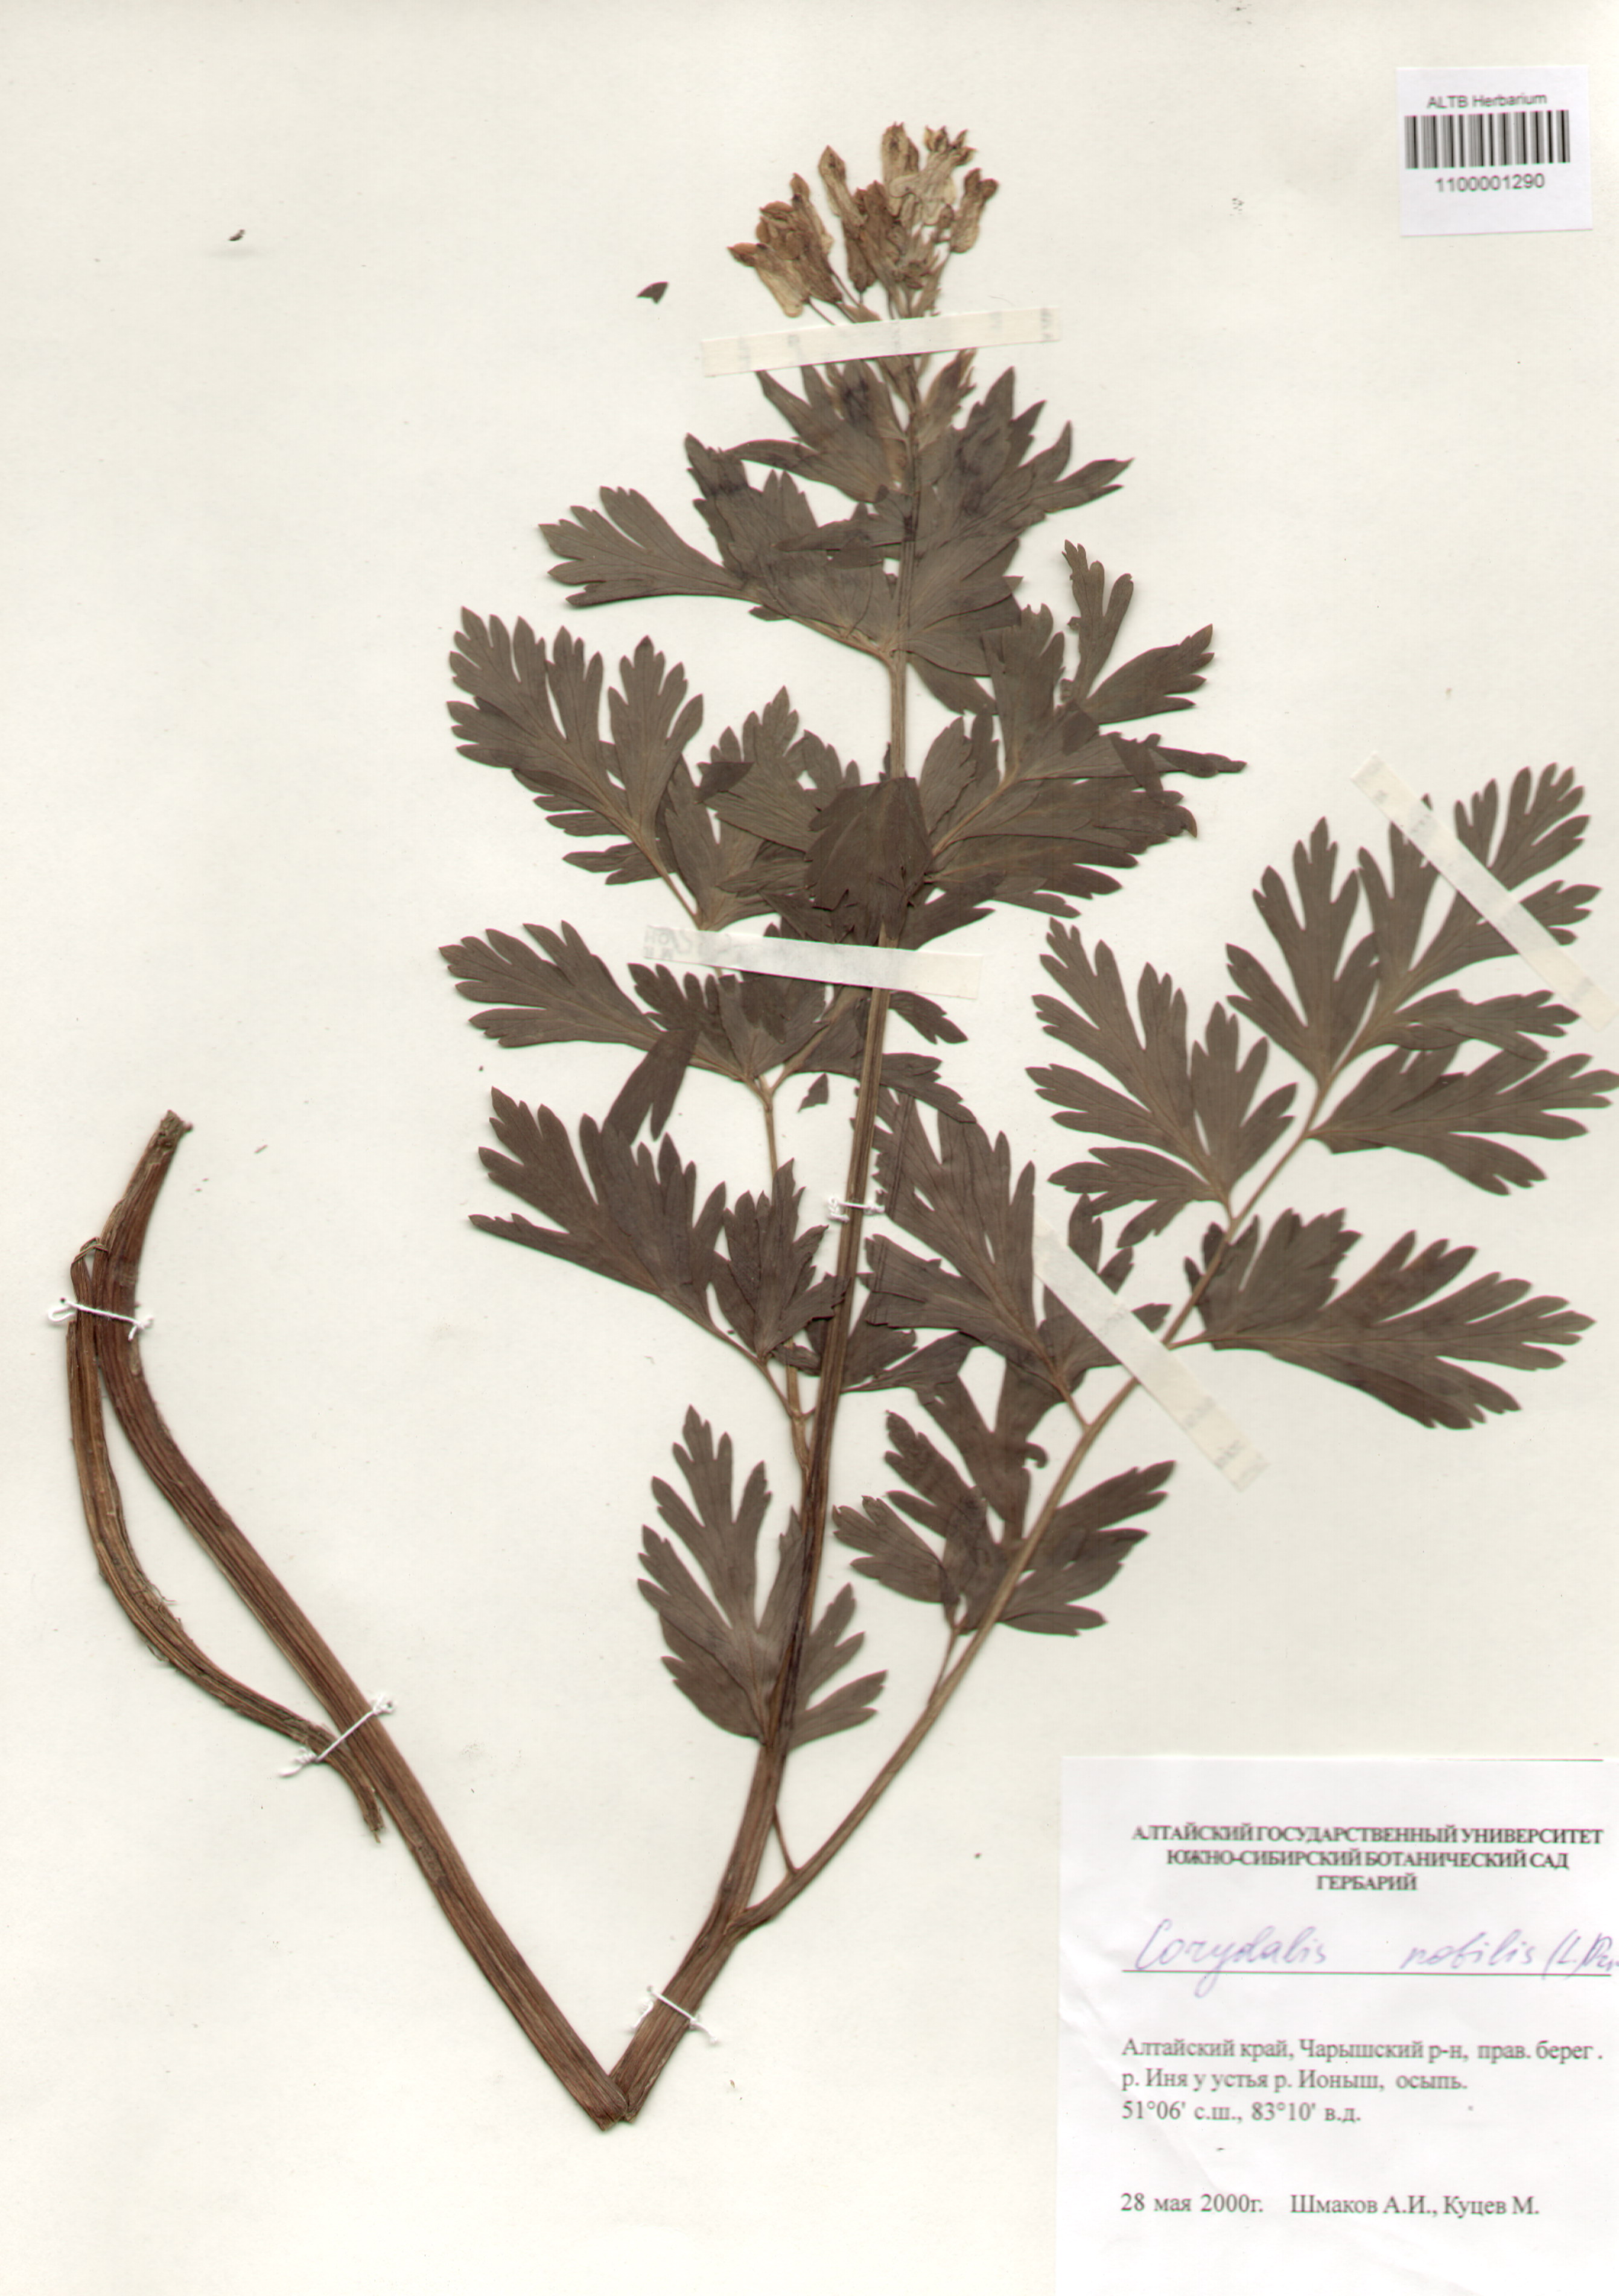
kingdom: Plantae
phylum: Tracheophyta
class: Magnoliopsida
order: Ranunculales
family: Papaveraceae
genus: Corydalis
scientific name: Corydalis nobilis
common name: Siberian corydalis
